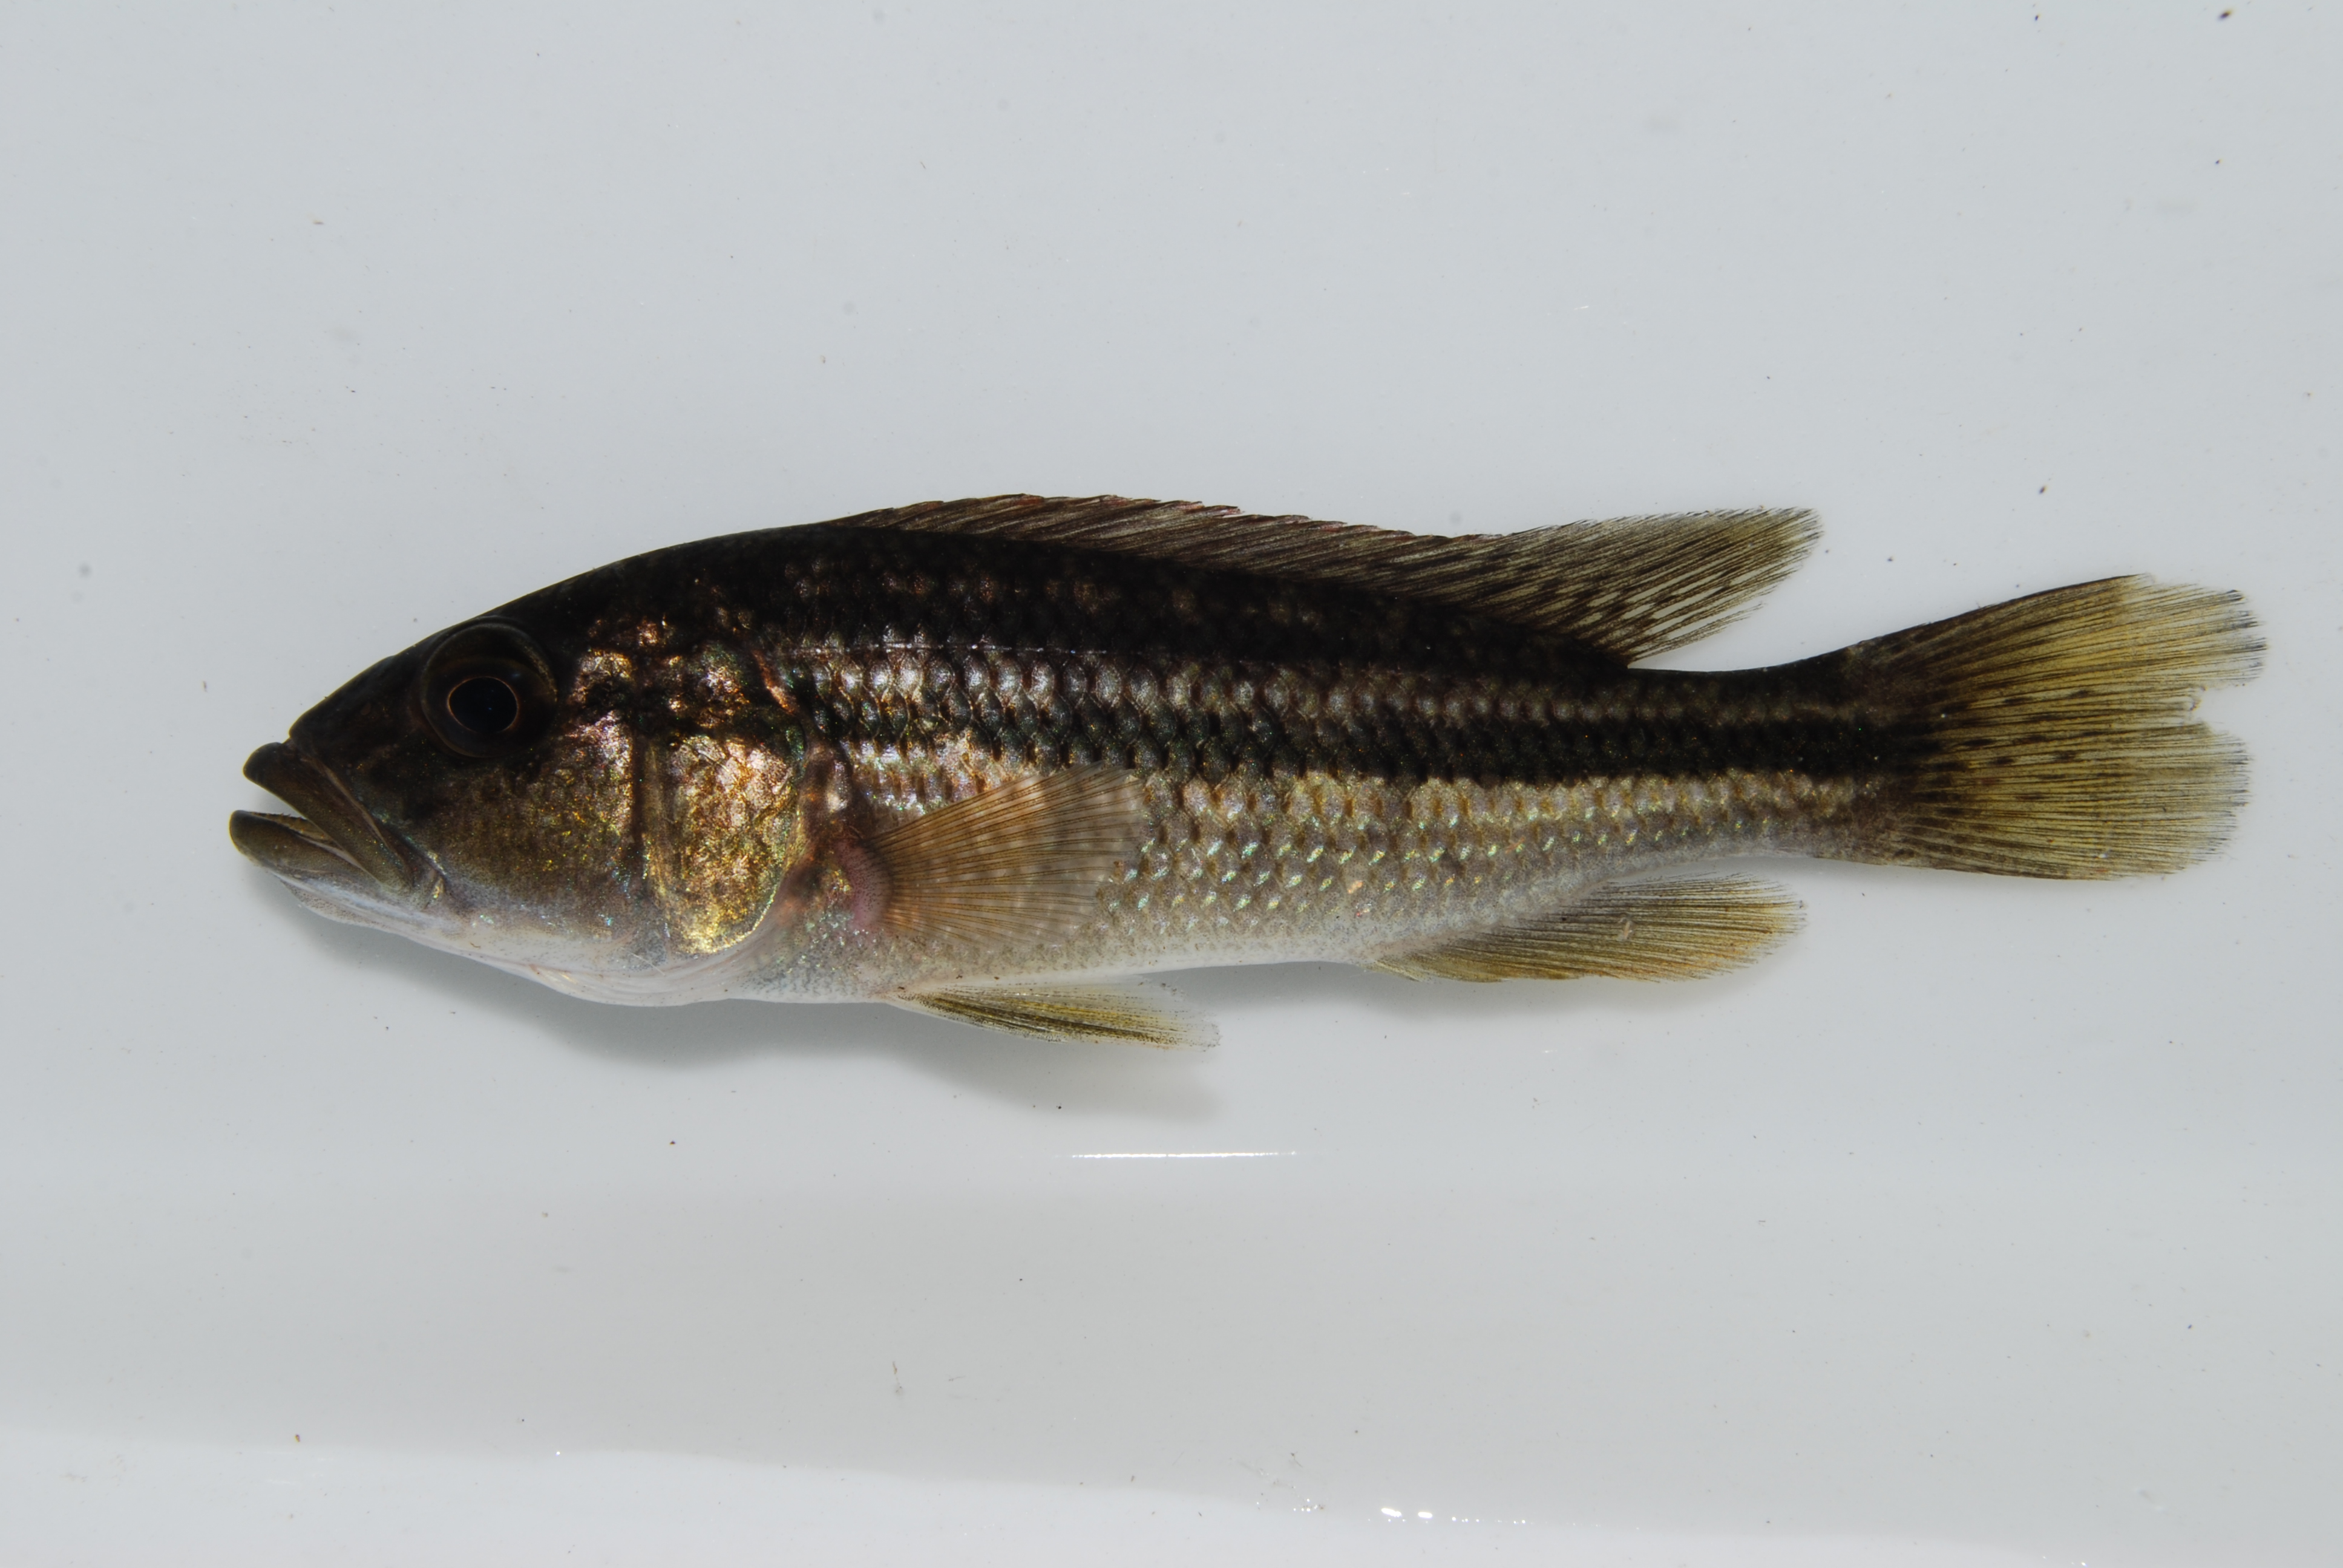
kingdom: Animalia
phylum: Chordata
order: Perciformes
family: Cichlidae
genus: Serranochromis
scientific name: Serranochromis robustus
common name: Yellow-belly bream
